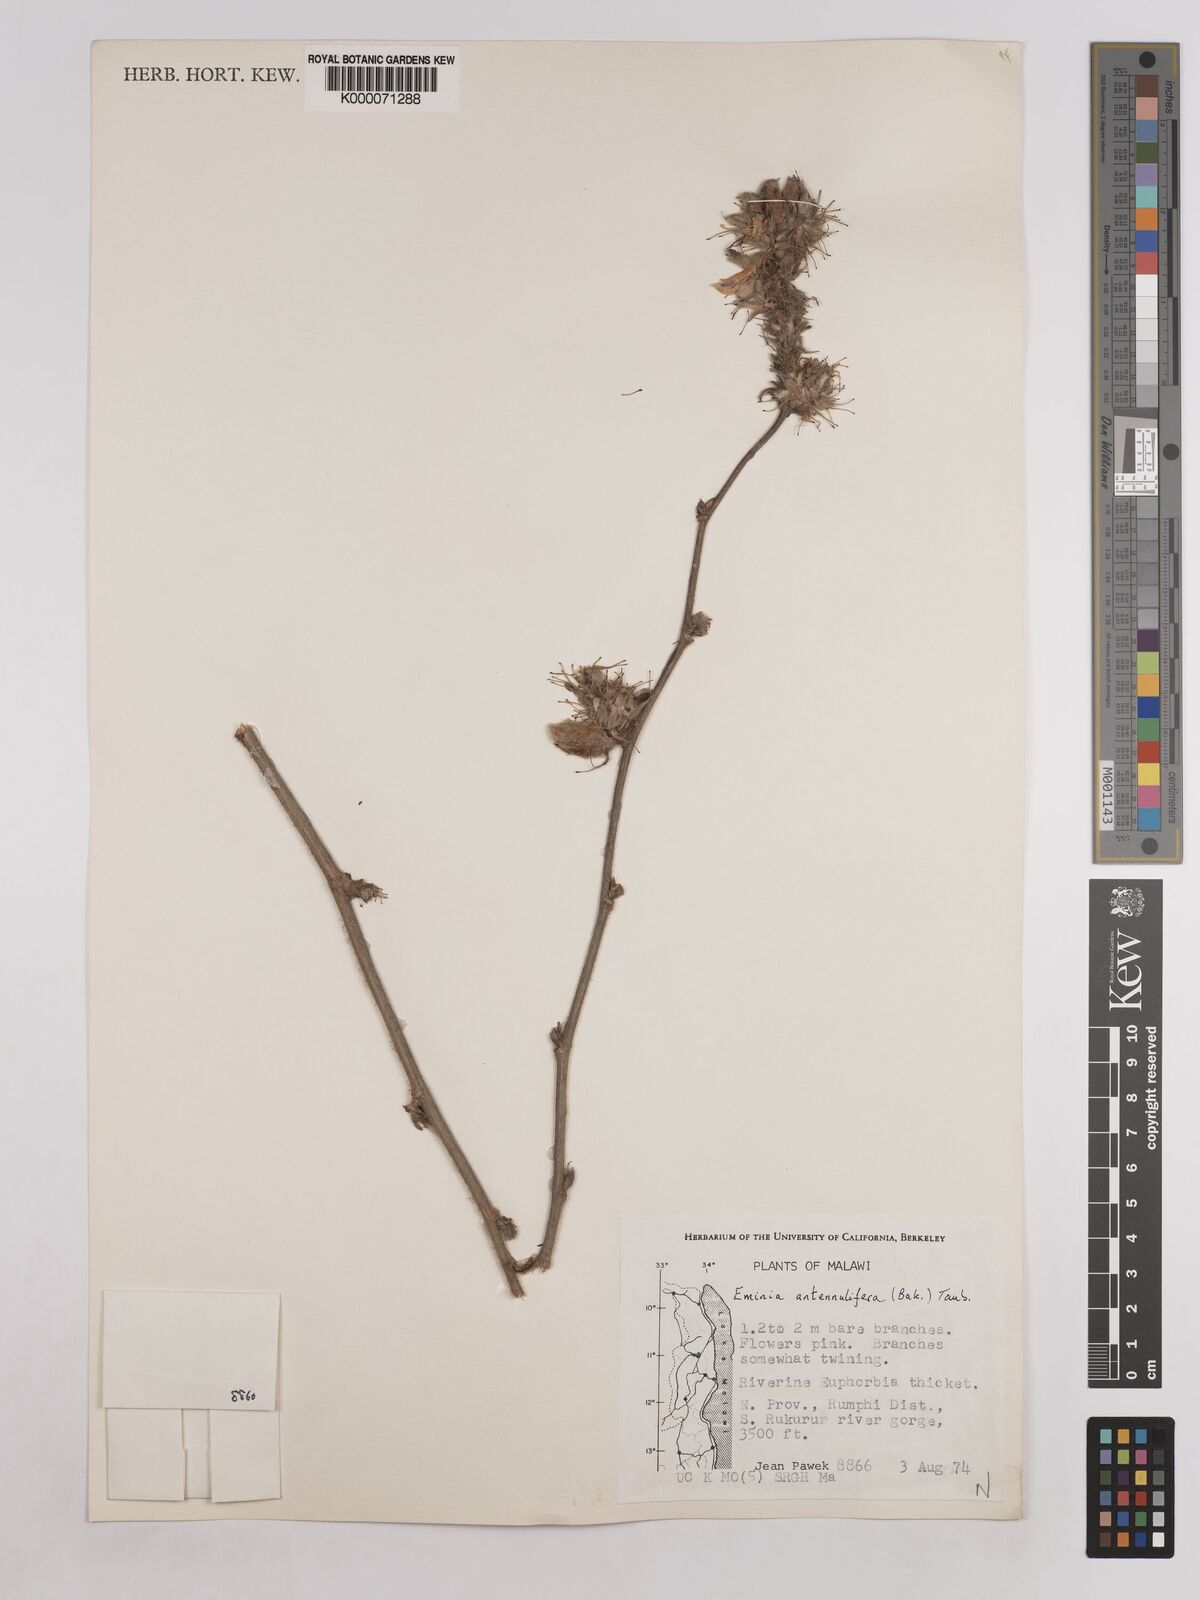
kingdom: Plantae
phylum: Tracheophyta
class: Magnoliopsida
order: Fabales
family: Fabaceae
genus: Eminia
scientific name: Eminia antennulifera
